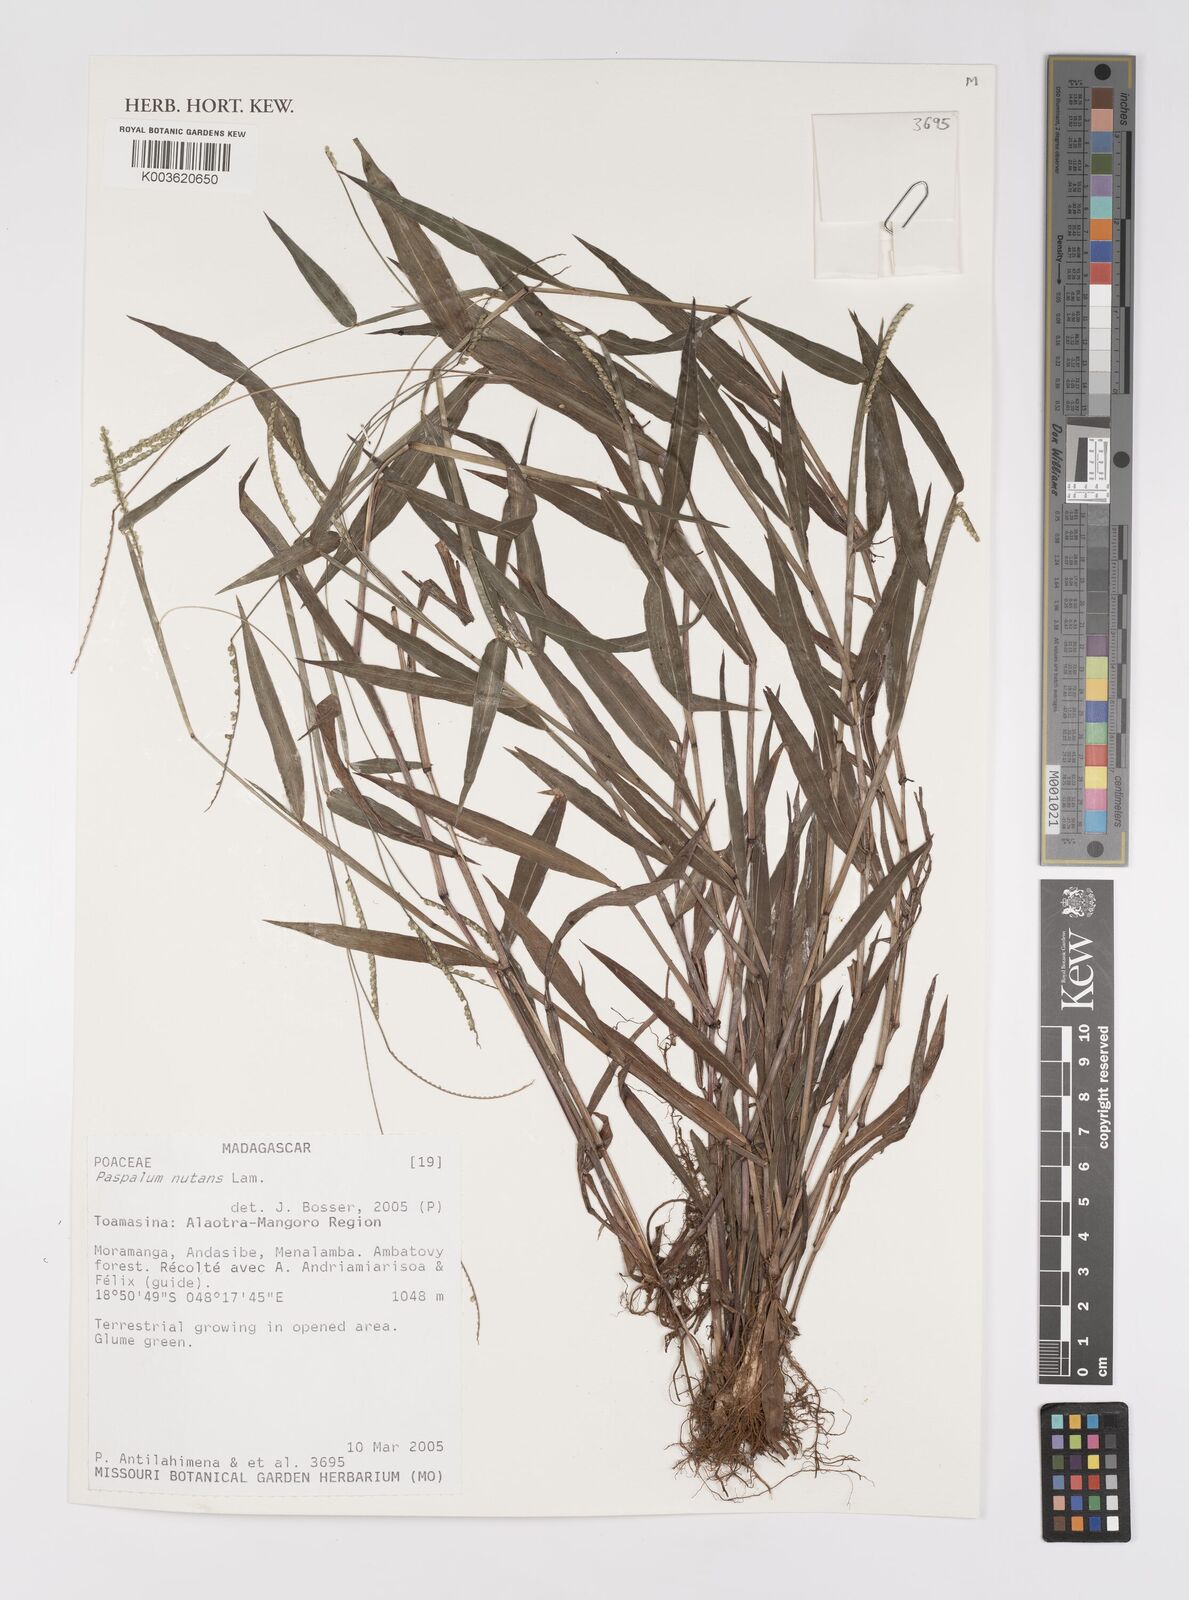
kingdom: Plantae
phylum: Tracheophyta
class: Liliopsida
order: Poales
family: Poaceae
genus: Paspalum
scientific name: Paspalum nutans
